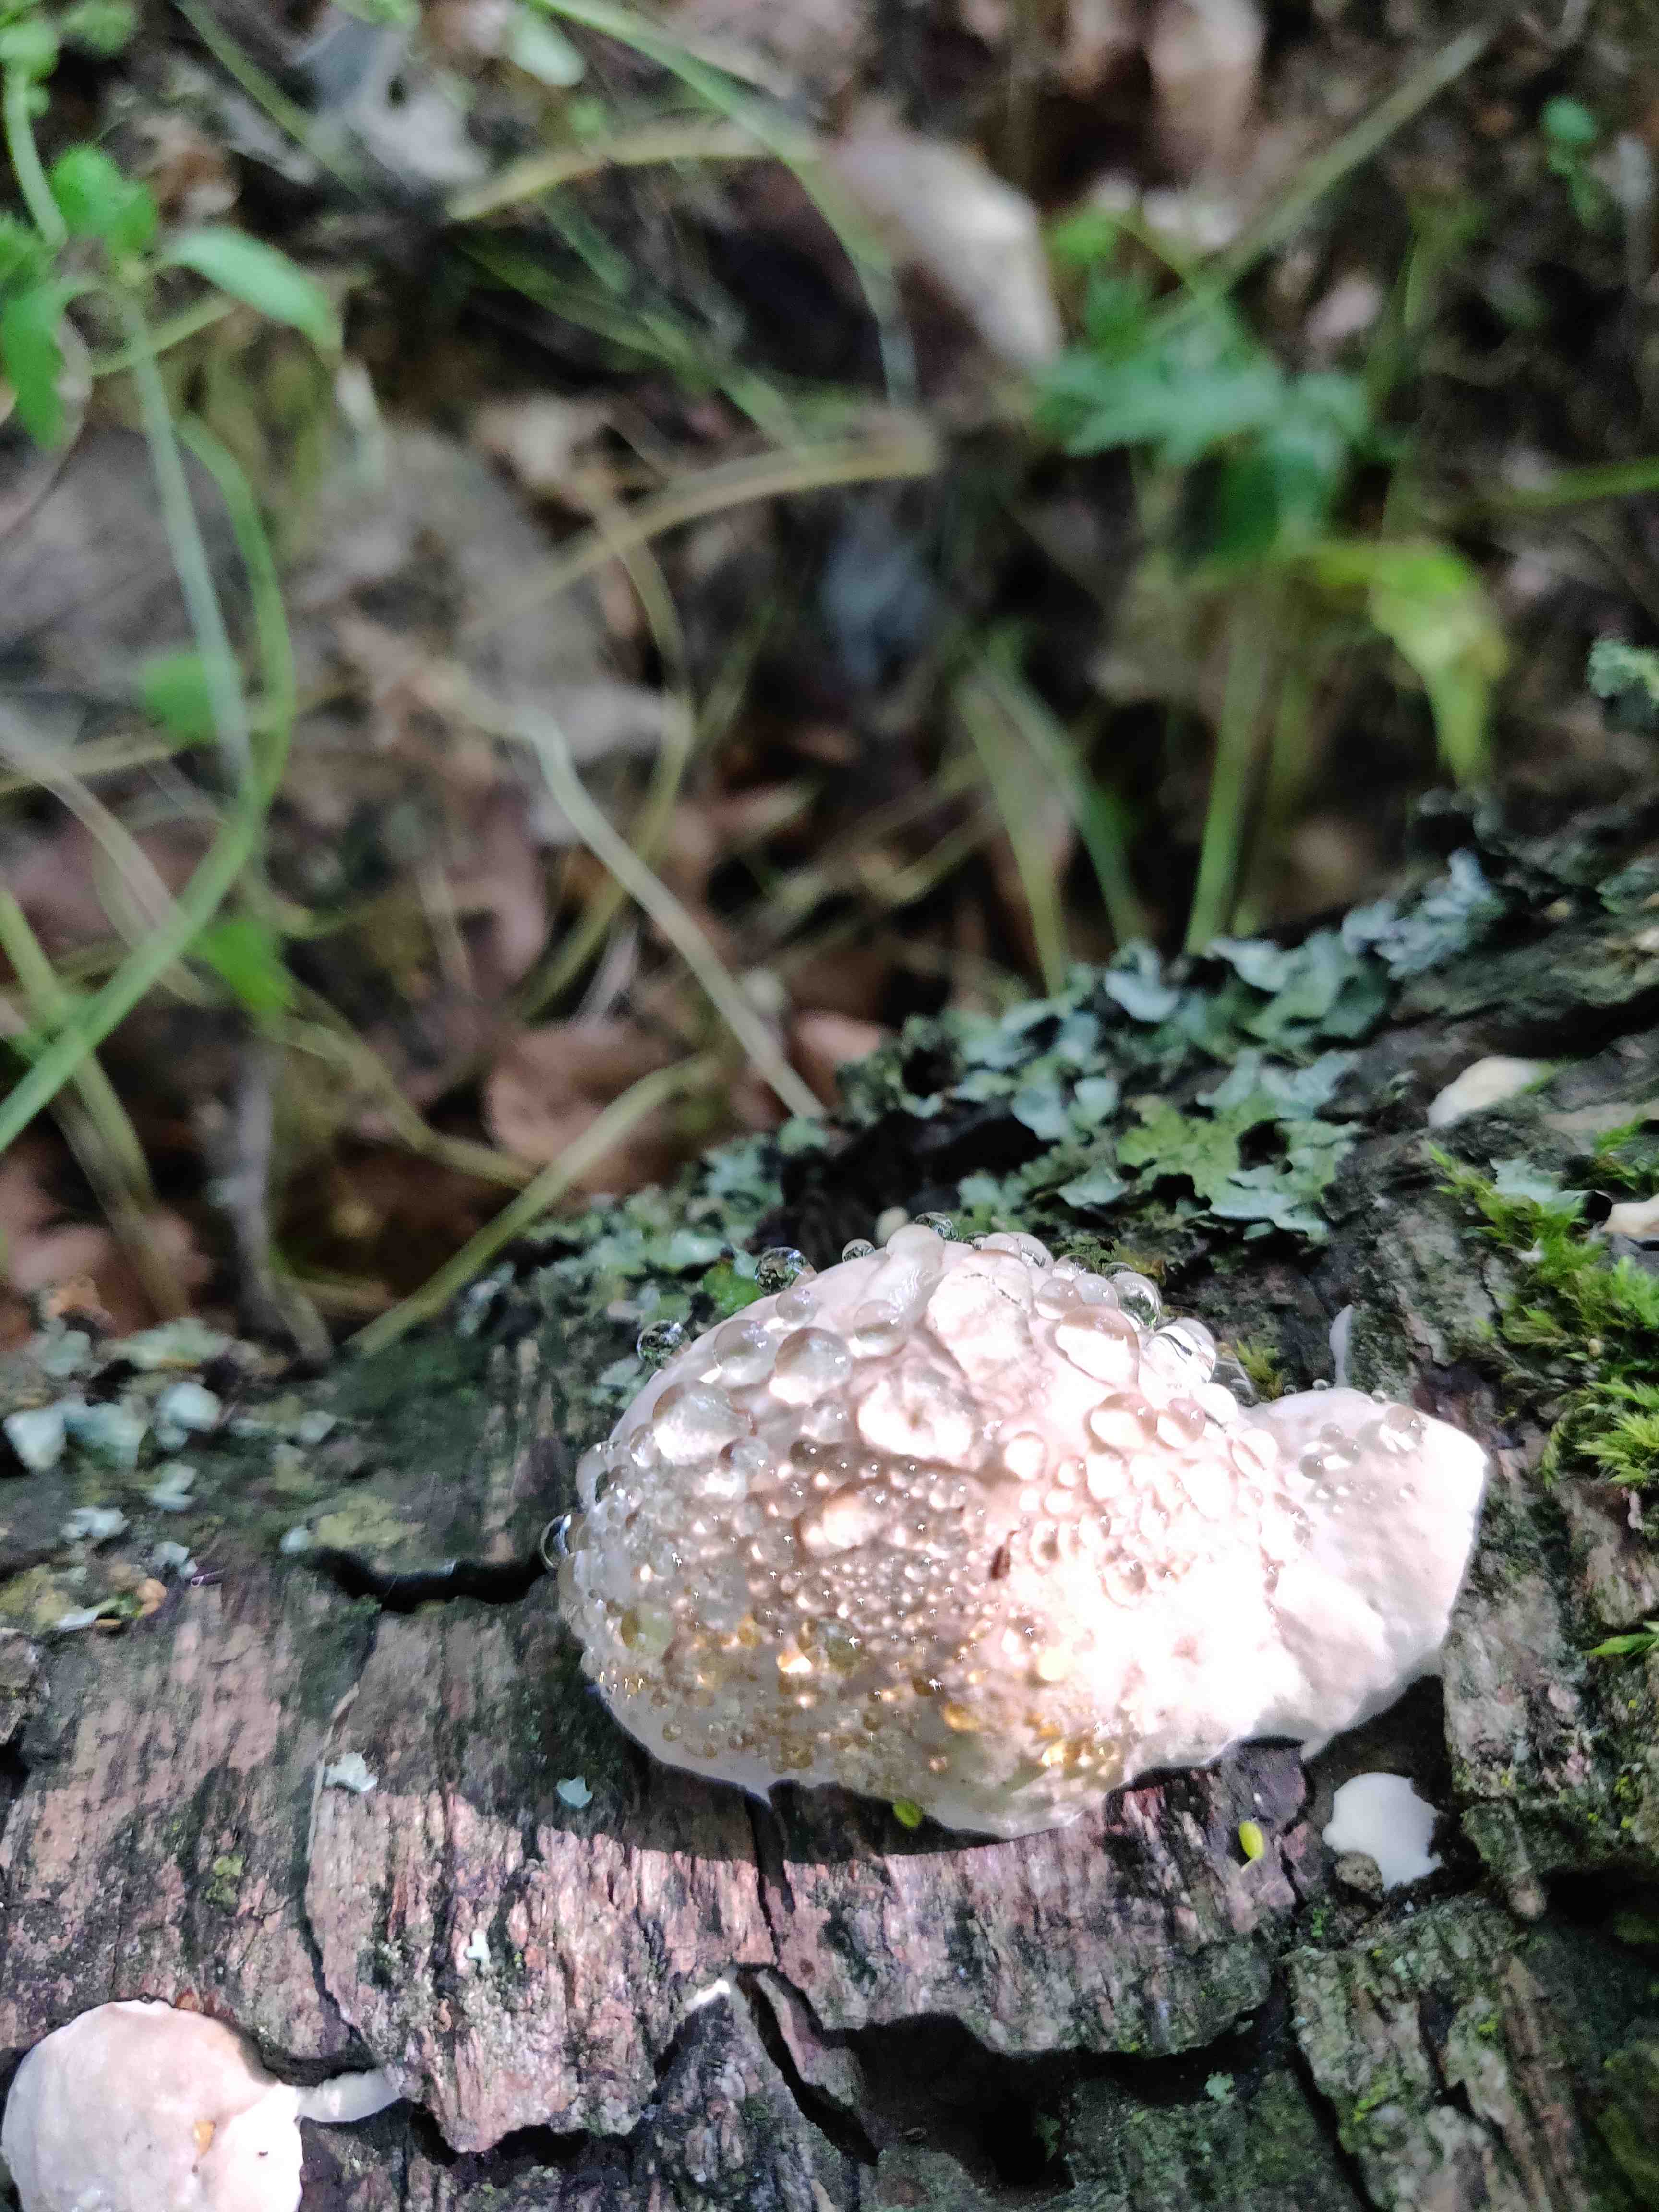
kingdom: Fungi
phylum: Basidiomycota
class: Agaricomycetes
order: Polyporales
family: Fomitopsidaceae
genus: Fomitopsis
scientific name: Fomitopsis pinicola
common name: randbæltet hovporesvamp
